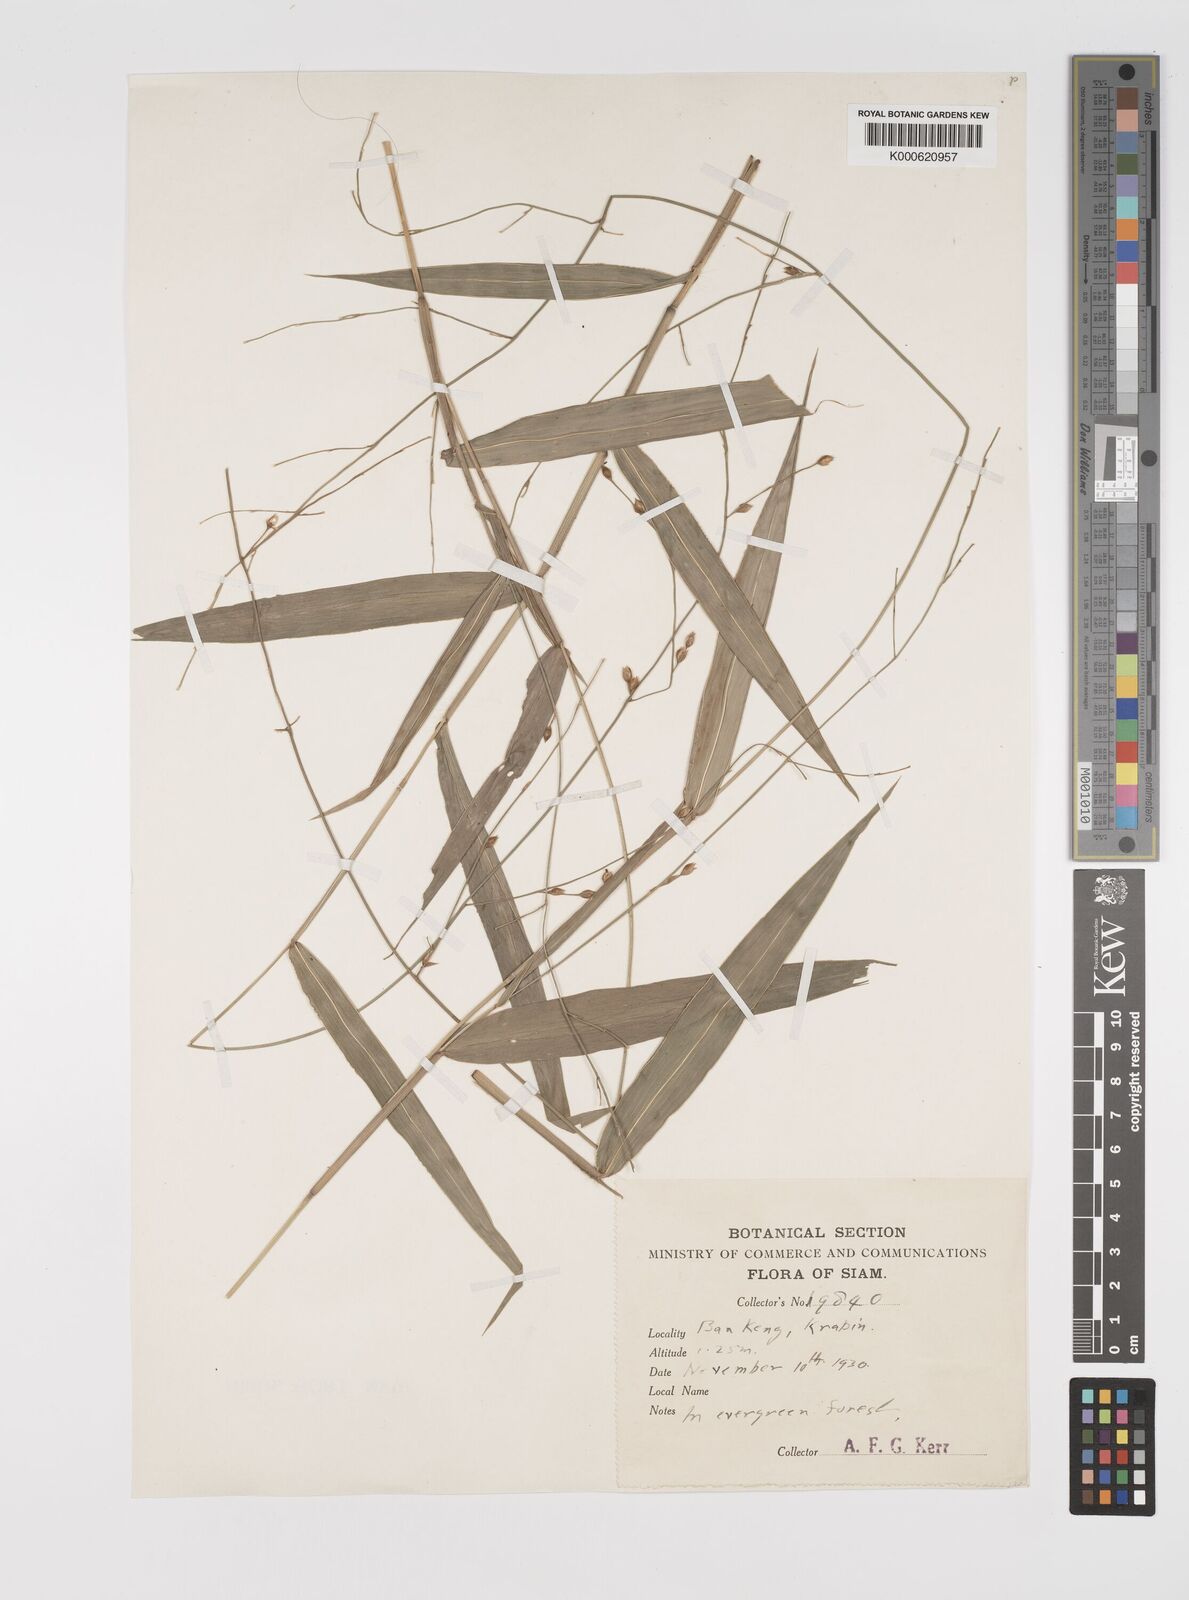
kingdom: Plantae
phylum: Tracheophyta
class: Liliopsida
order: Poales
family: Poaceae
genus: Acroceras
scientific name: Acroceras
